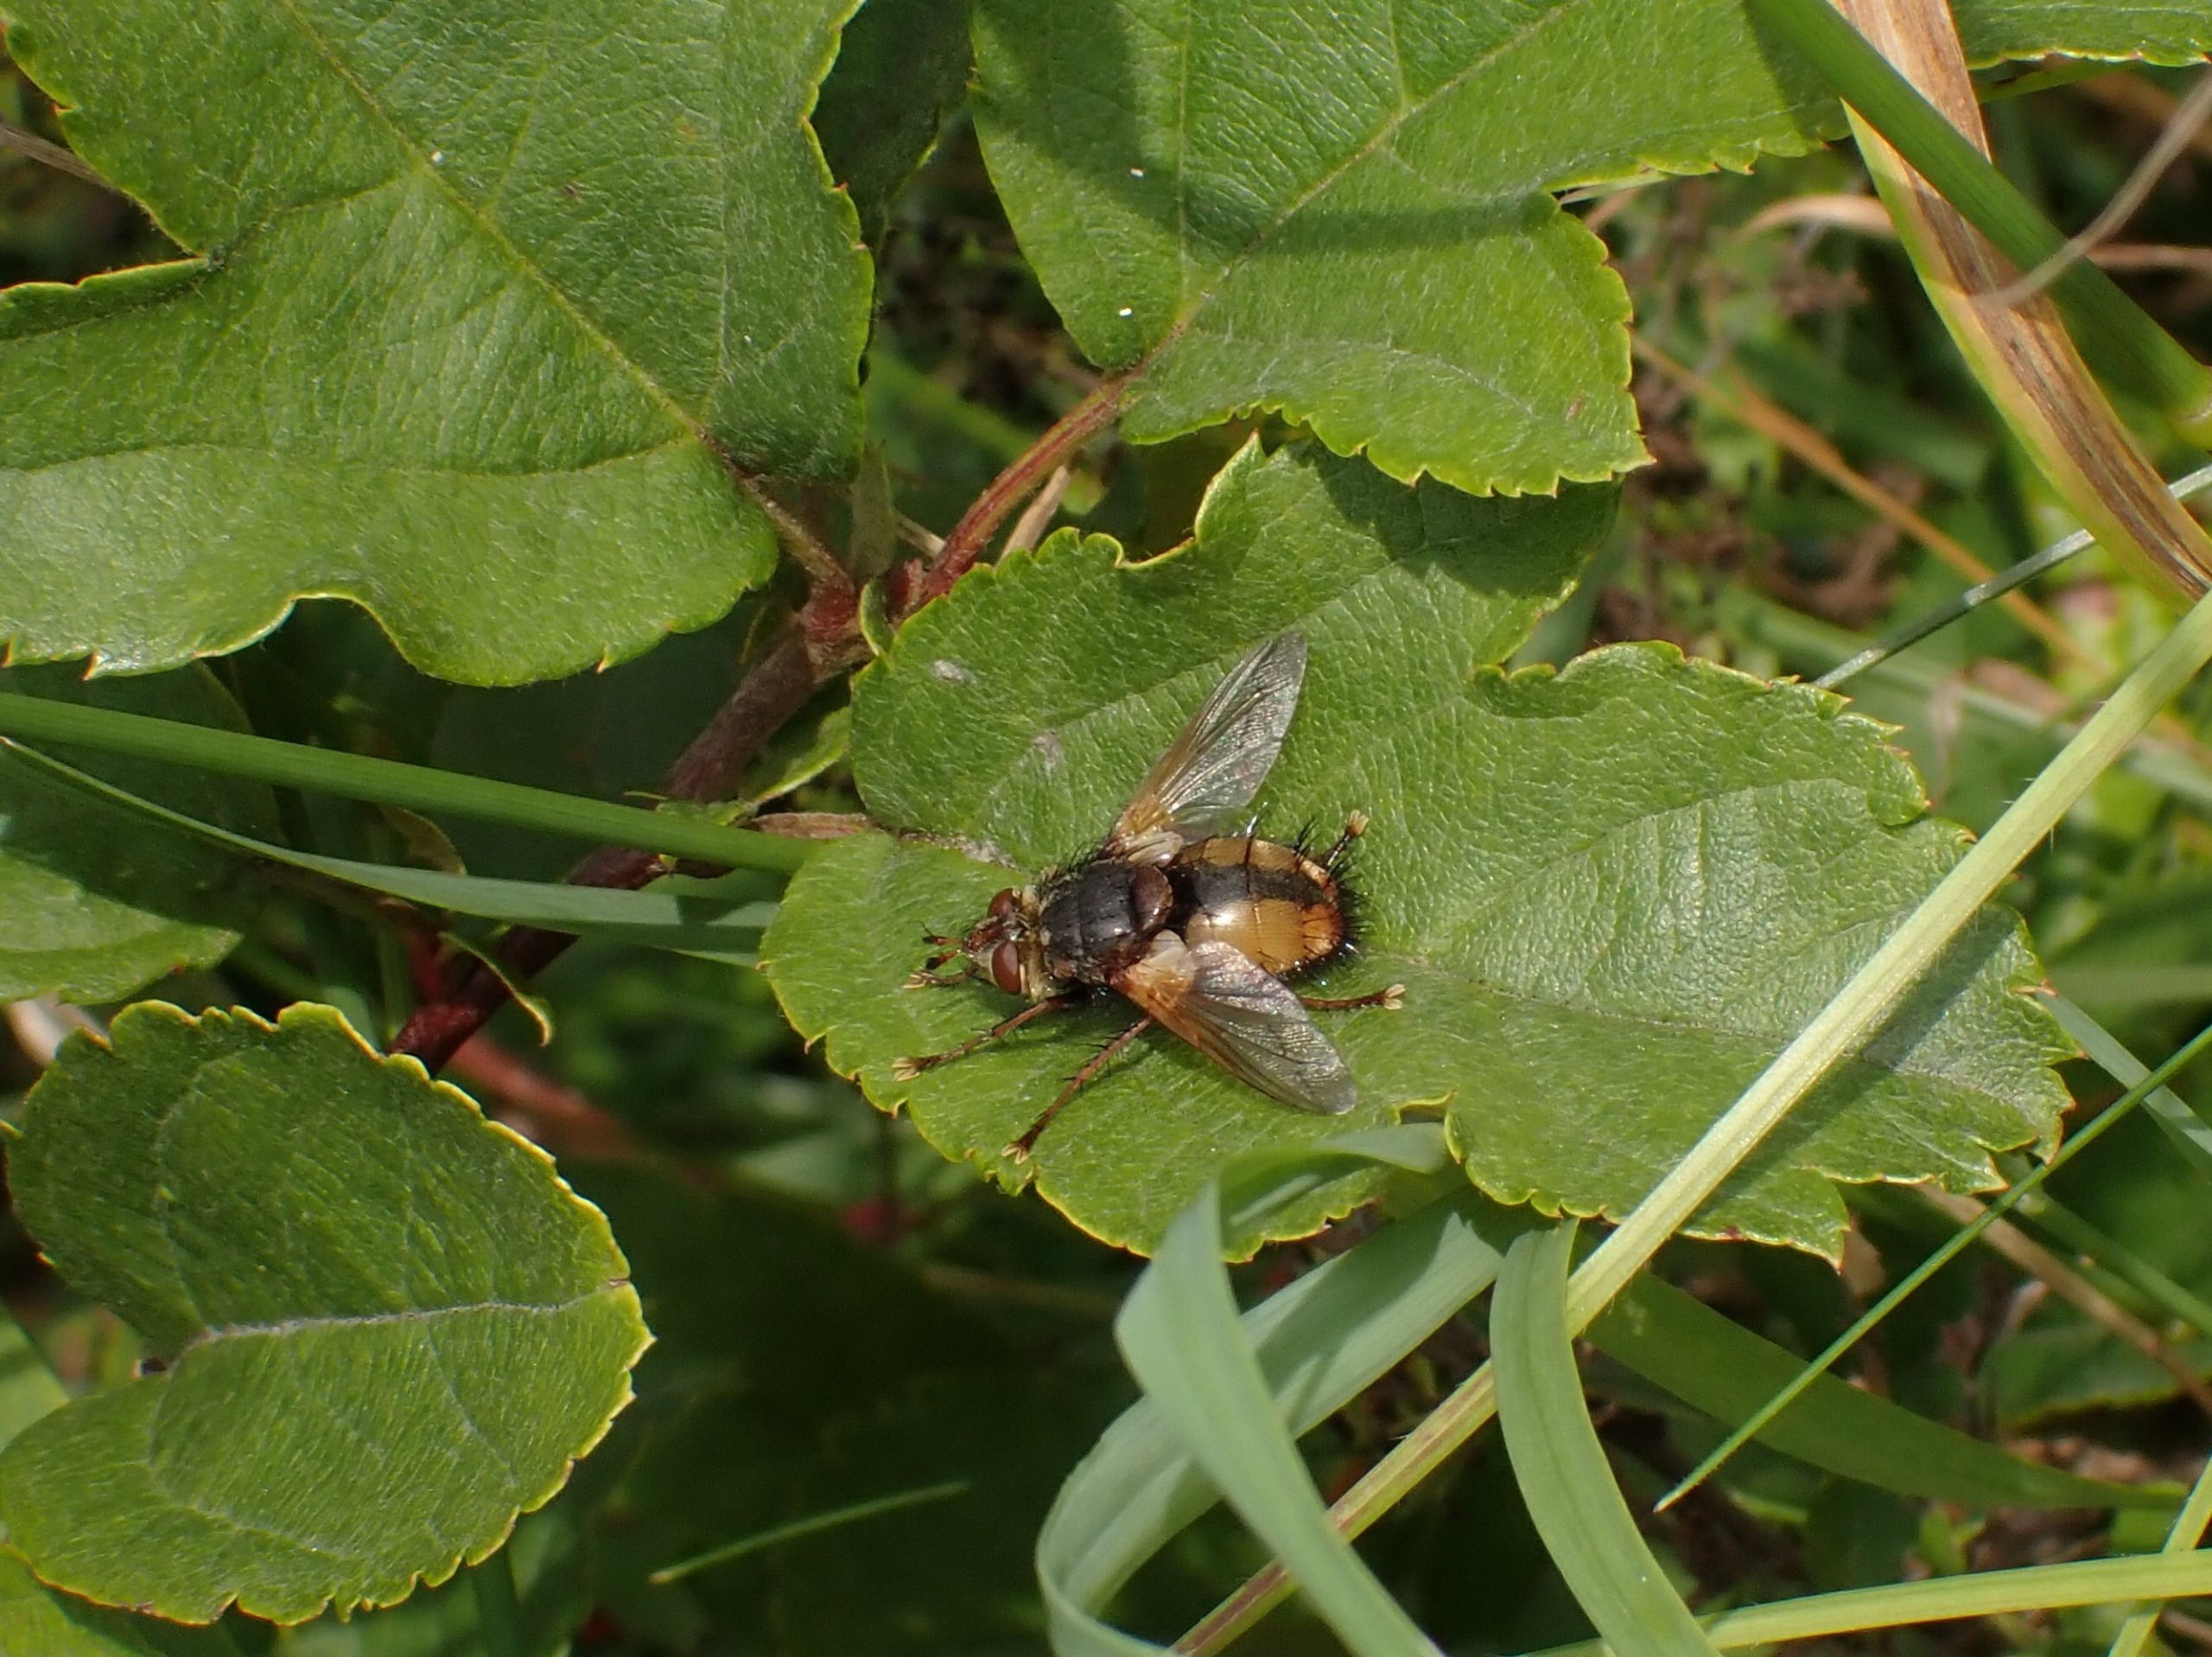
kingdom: Animalia
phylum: Arthropoda
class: Insecta
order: Diptera
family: Tachinidae
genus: Tachina
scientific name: Tachina fera
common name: Mellemfluen oskar
